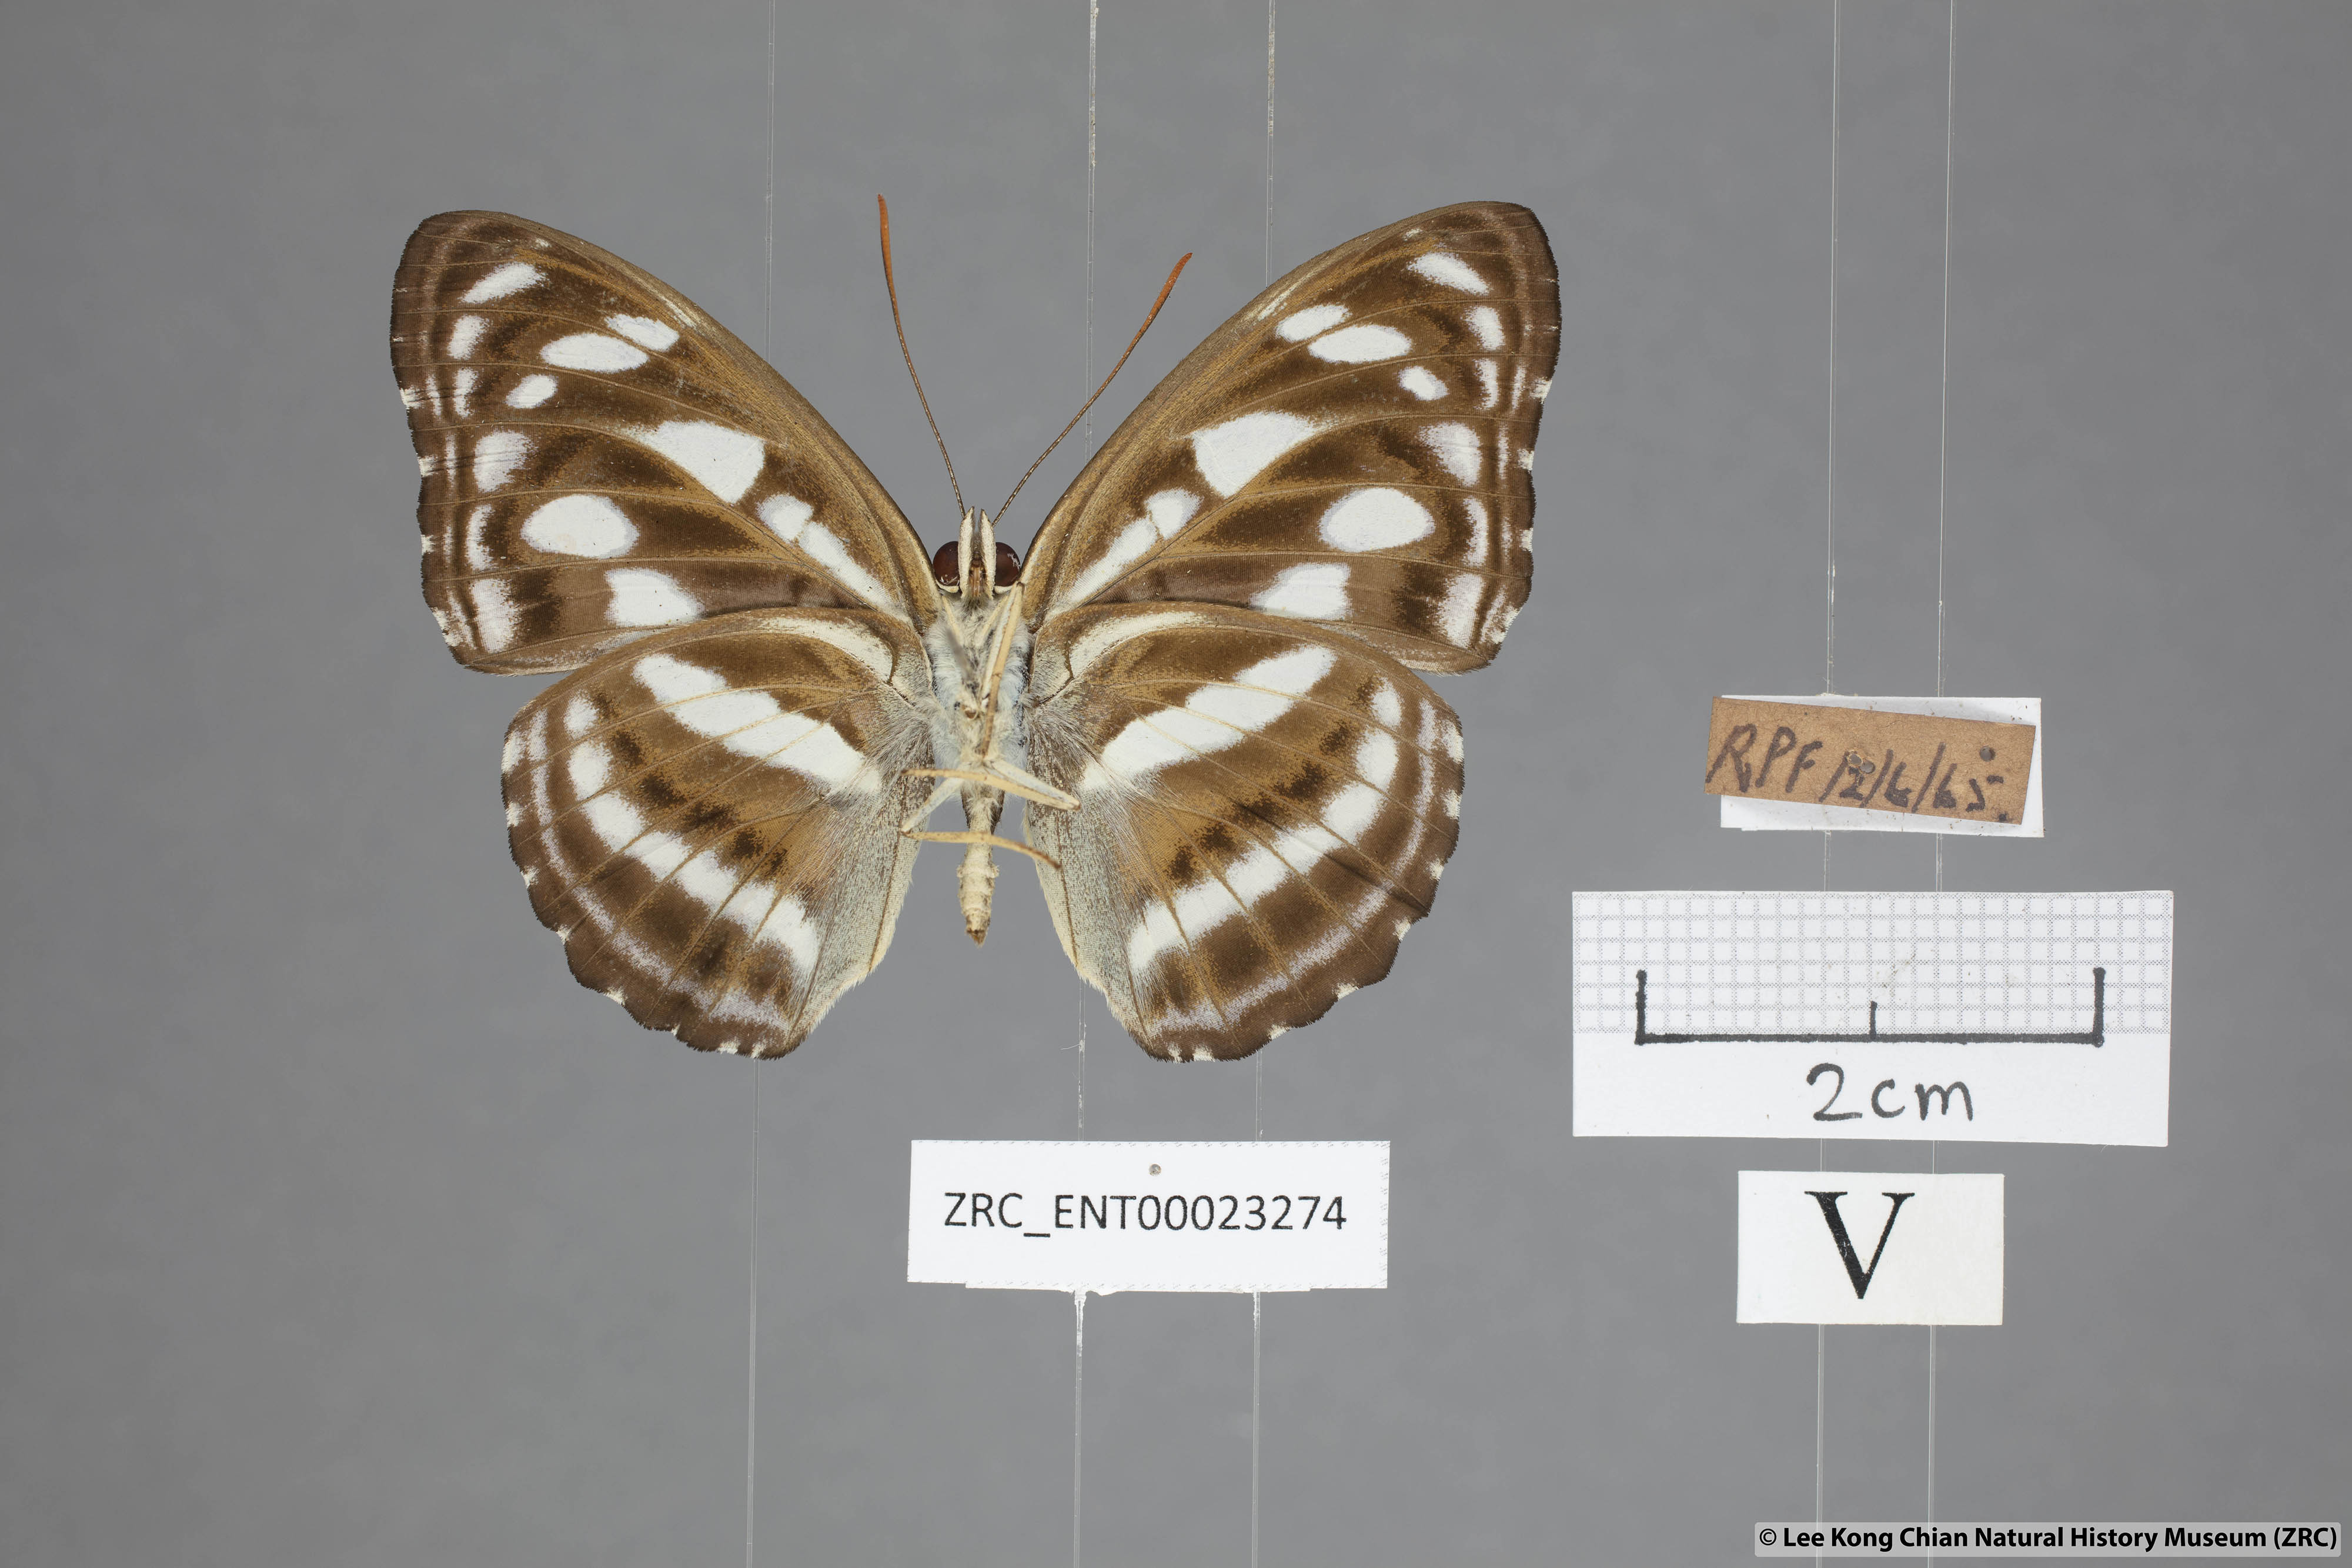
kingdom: Animalia
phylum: Arthropoda
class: Insecta
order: Lepidoptera
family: Nymphalidae
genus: Parathyma
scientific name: Parathyma reta
